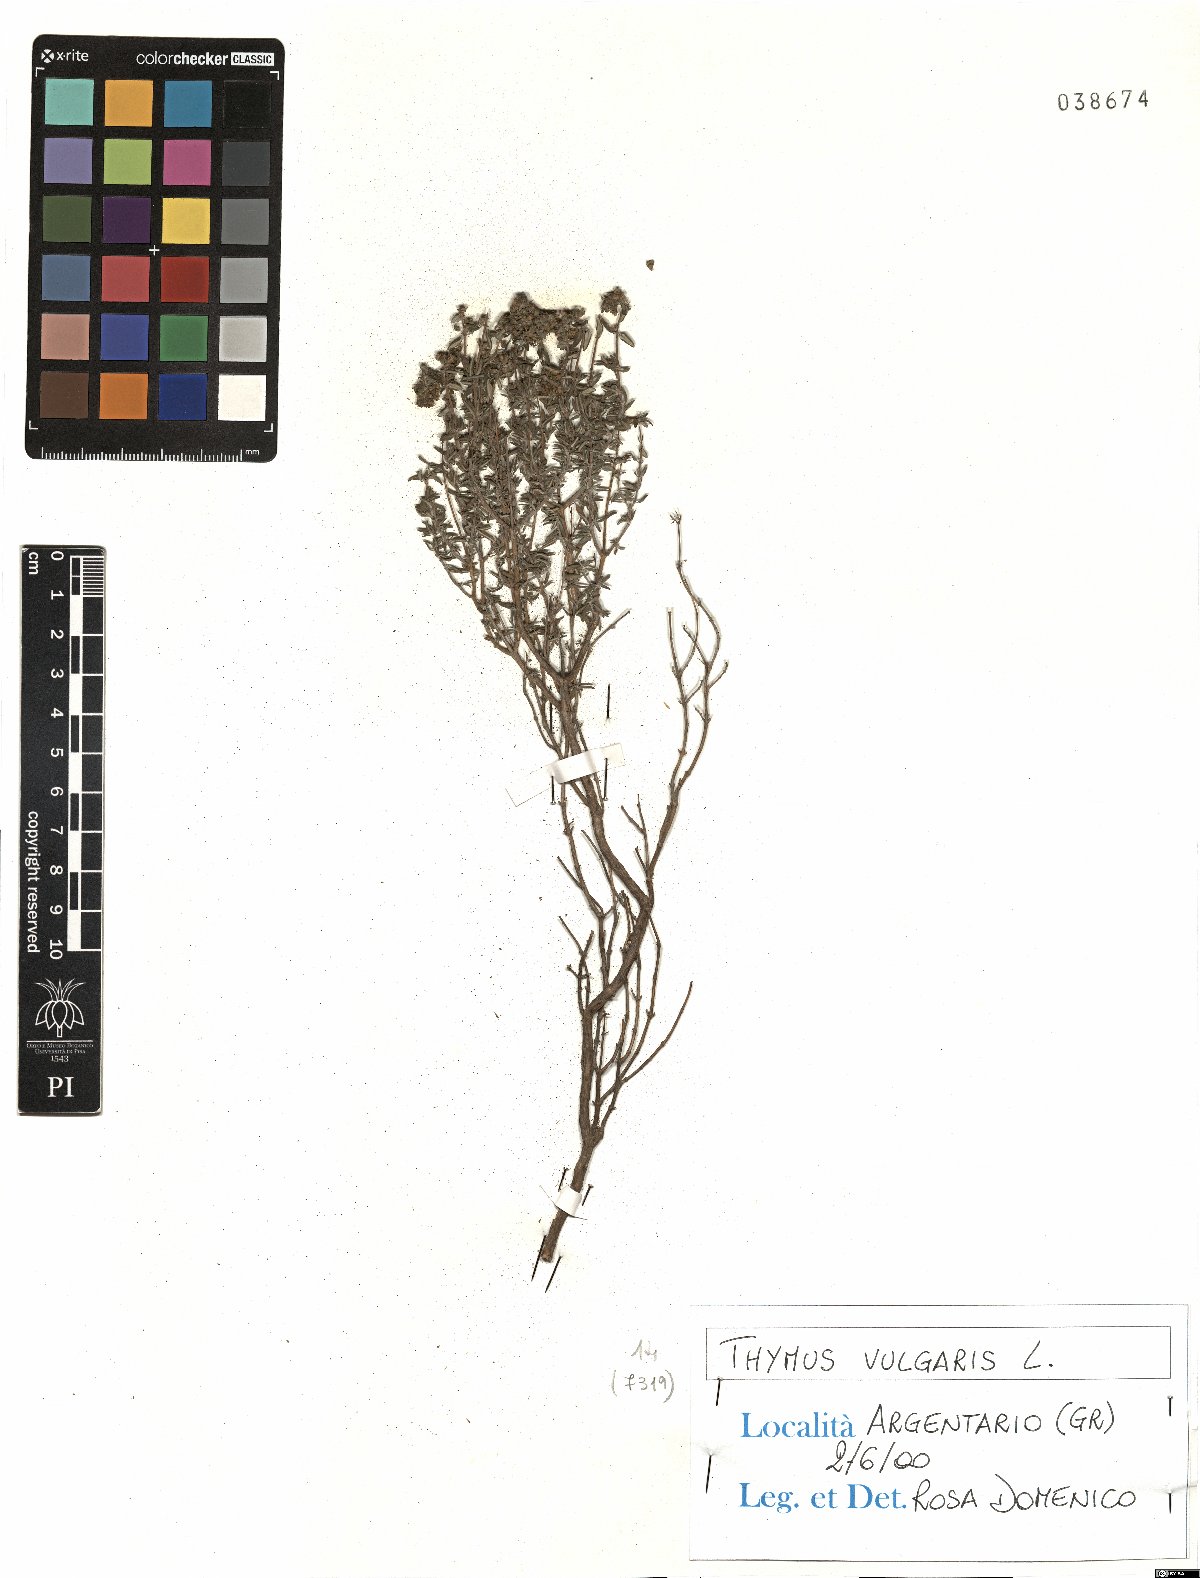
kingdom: Plantae
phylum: Tracheophyta
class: Magnoliopsida
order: Lamiales
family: Lamiaceae
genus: Thymus
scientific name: Thymus vulgaris
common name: Garden thyme
